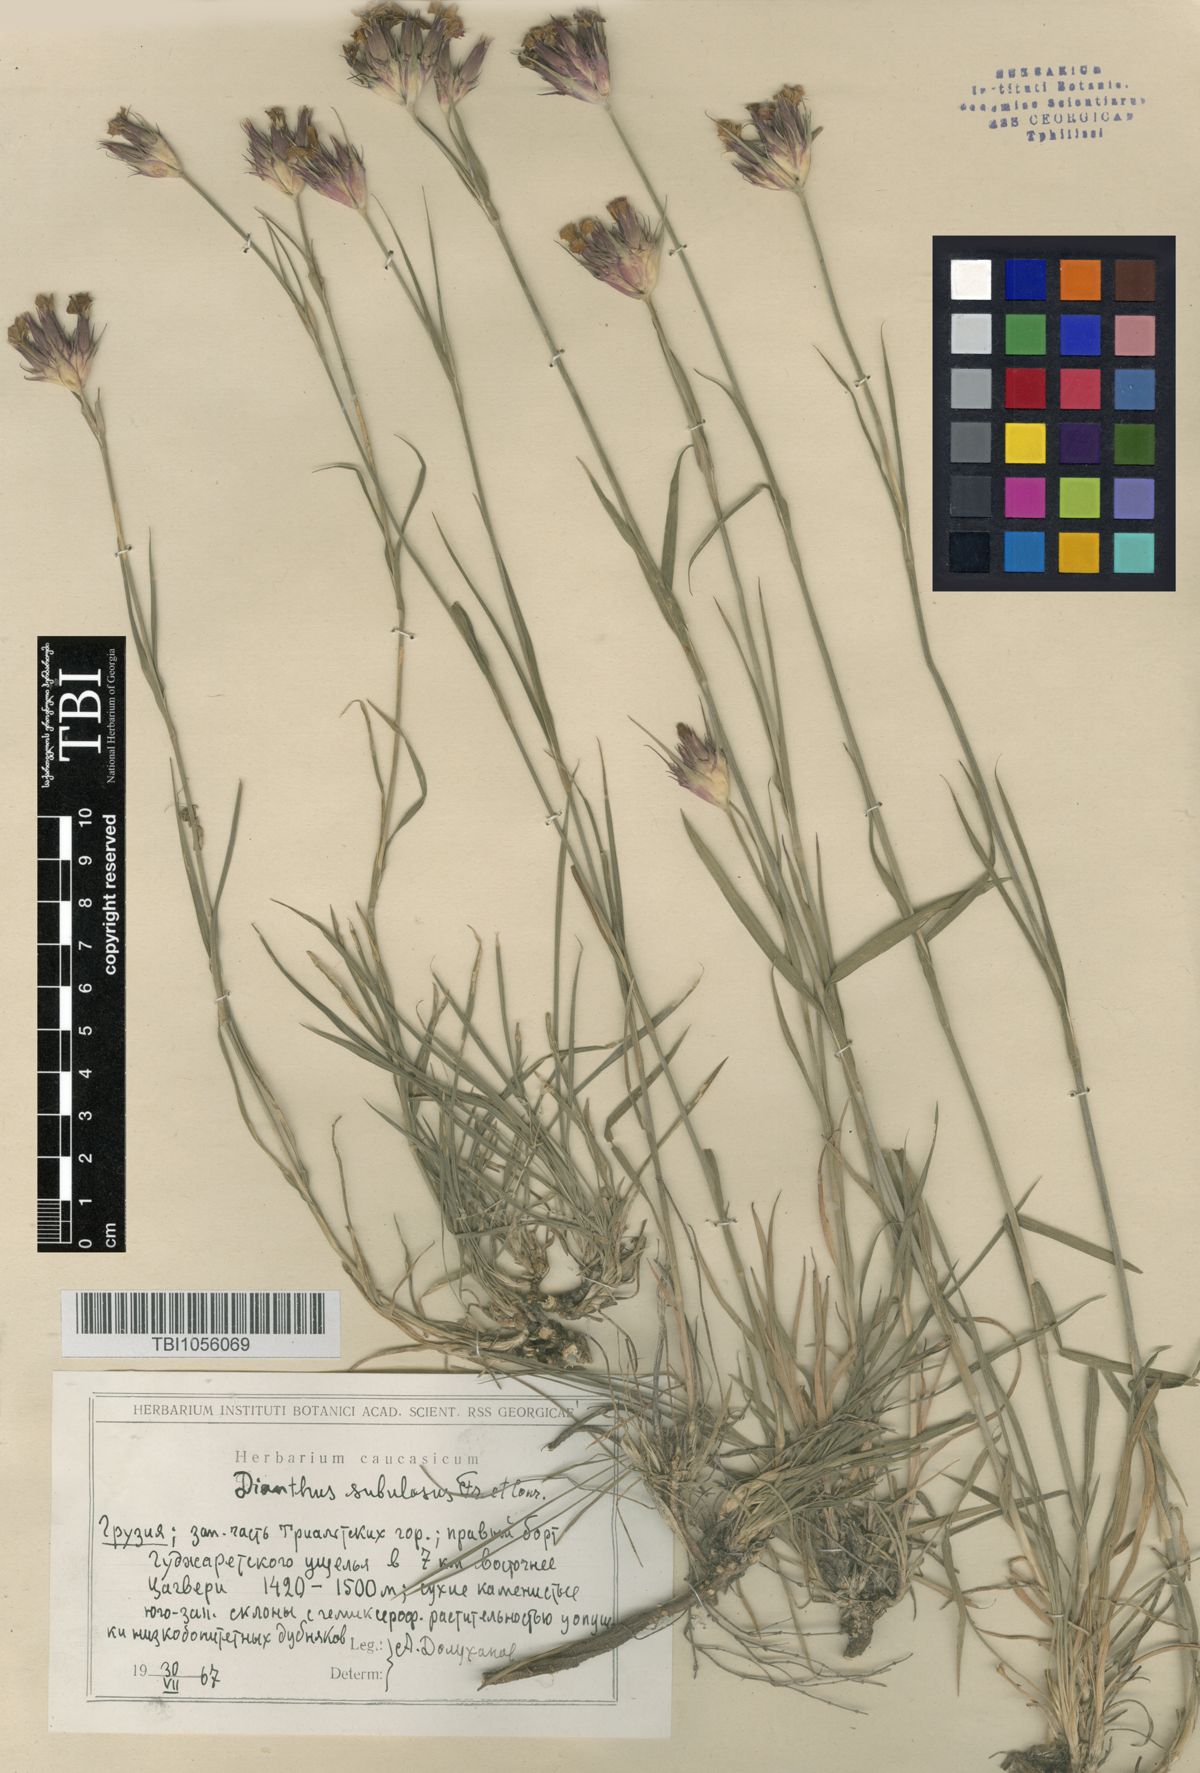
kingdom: Plantae
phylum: Tracheophyta
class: Magnoliopsida
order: Caryophyllales
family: Caryophyllaceae
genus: Dianthus
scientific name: Dianthus subulosus
